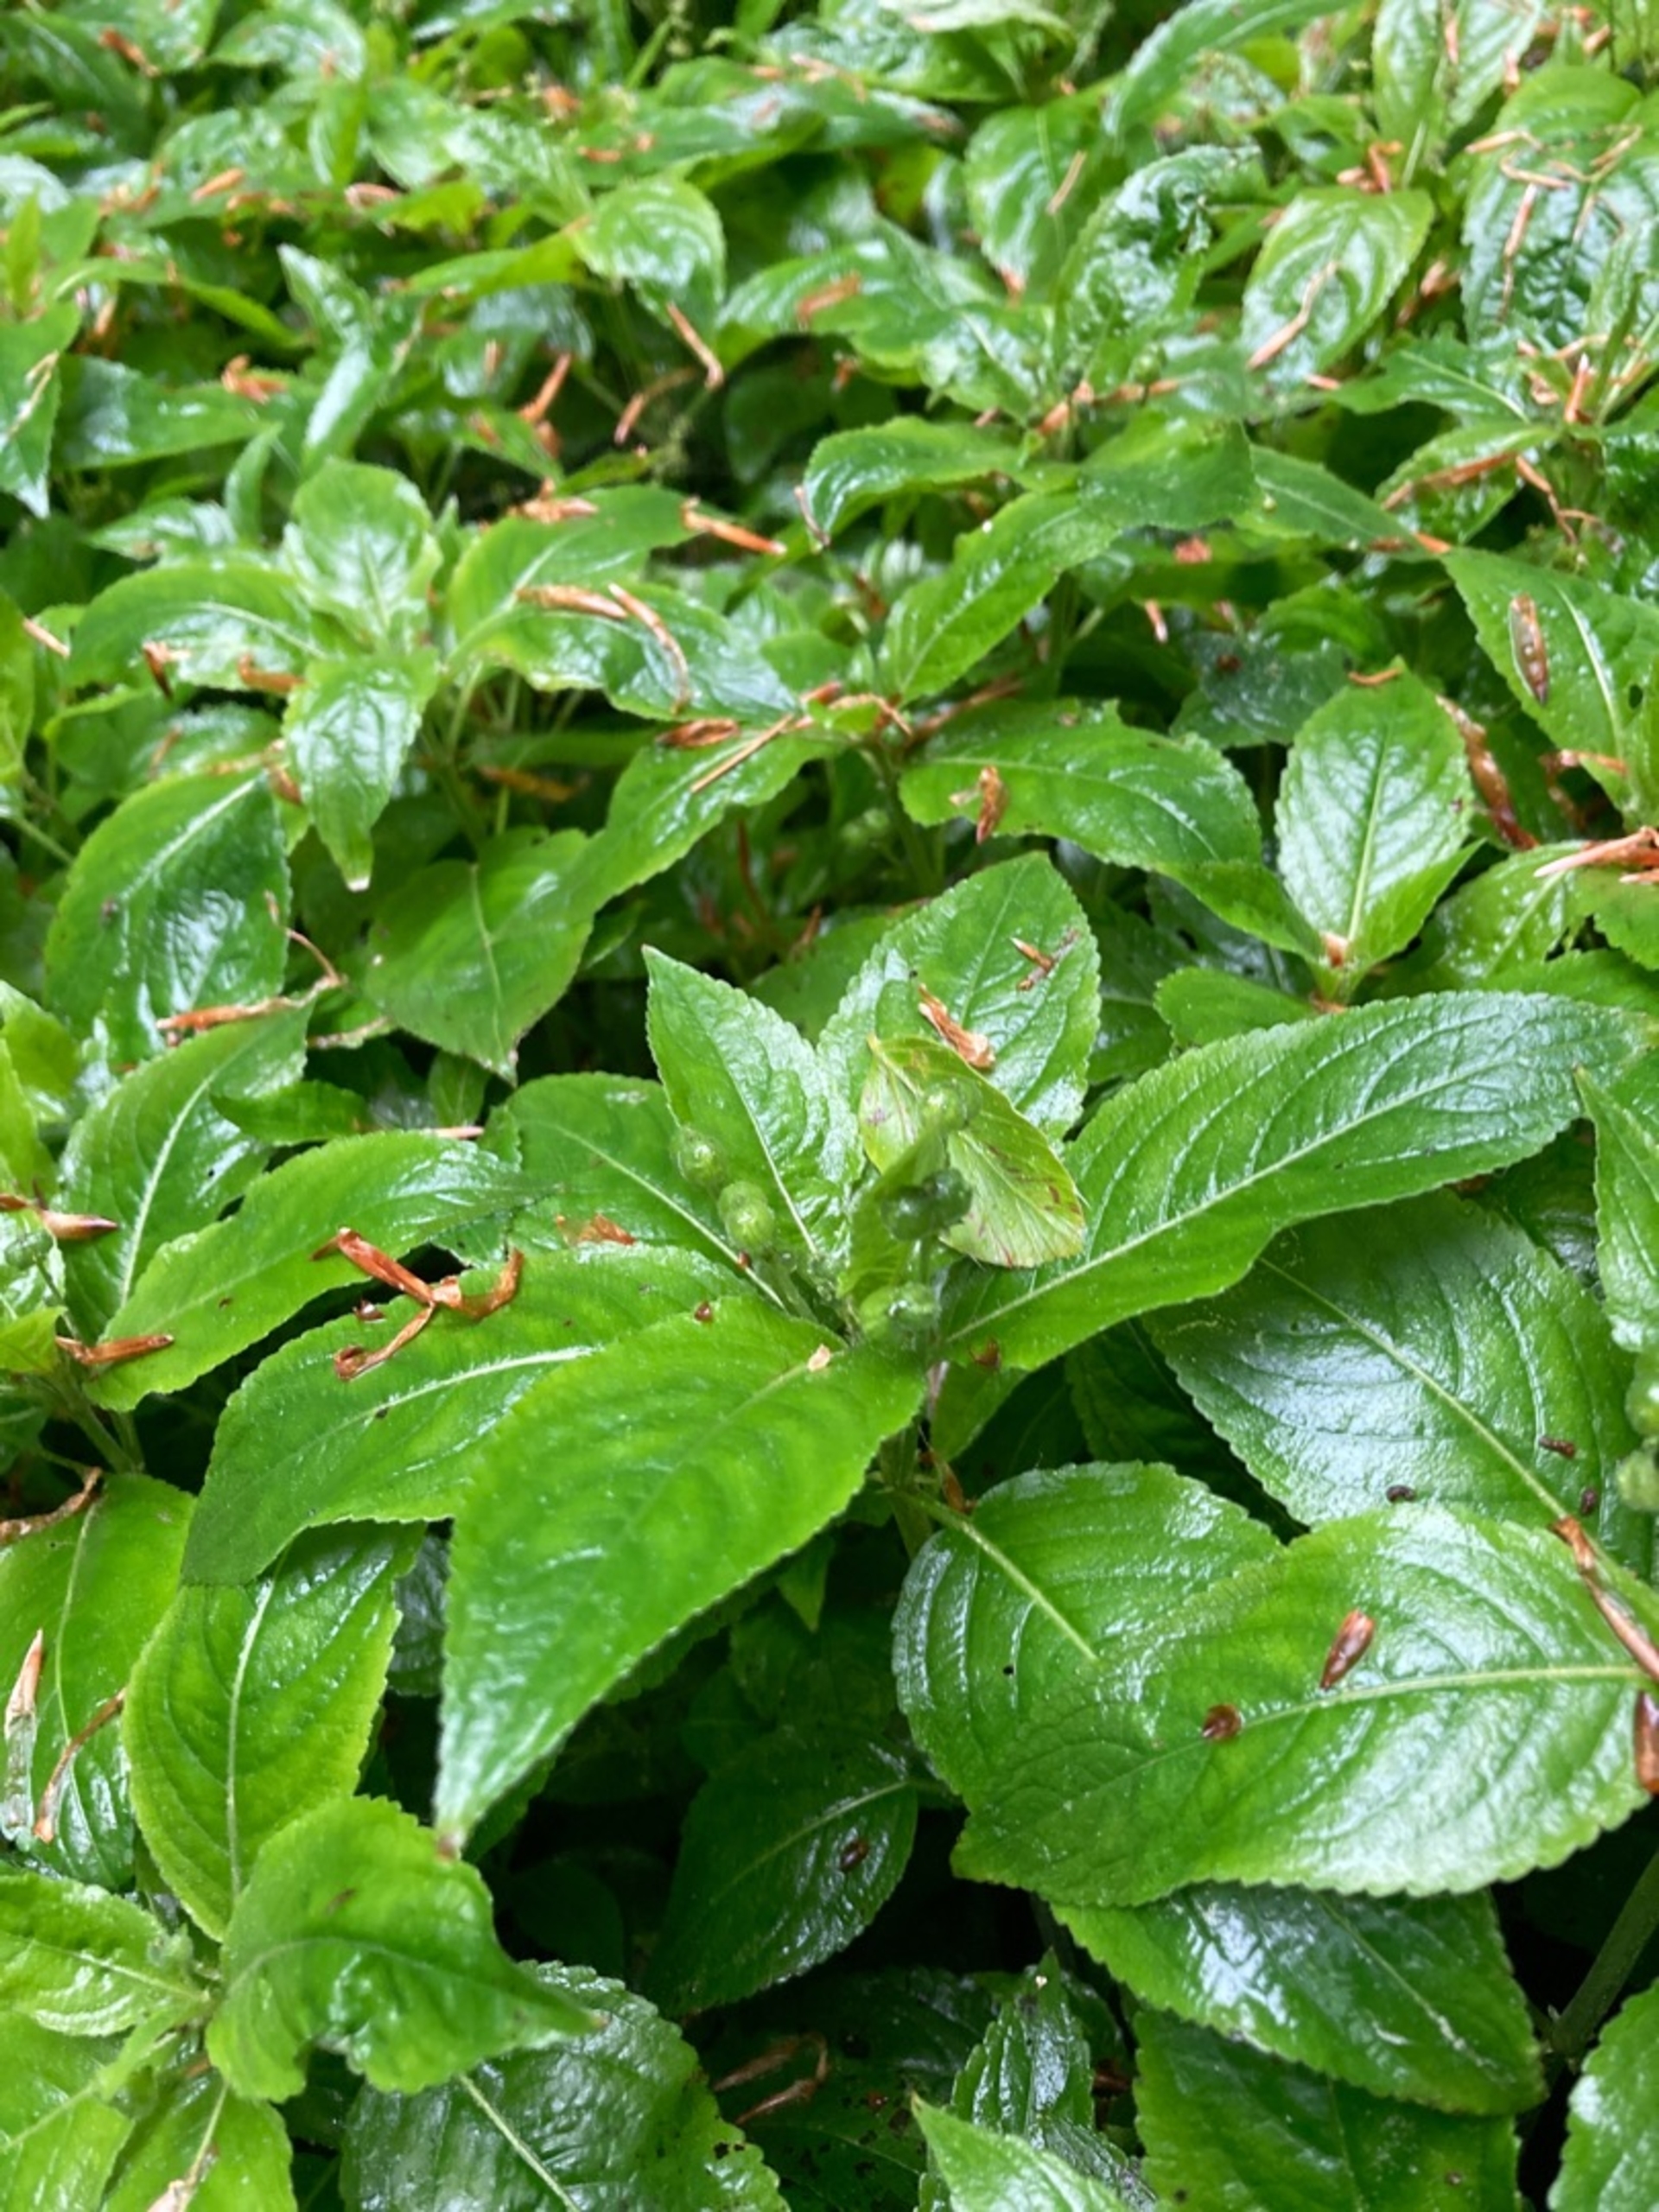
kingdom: Plantae
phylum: Tracheophyta
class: Magnoliopsida
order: Malpighiales
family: Euphorbiaceae
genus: Mercurialis
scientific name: Mercurialis perennis
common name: Almindelig bingelurt
